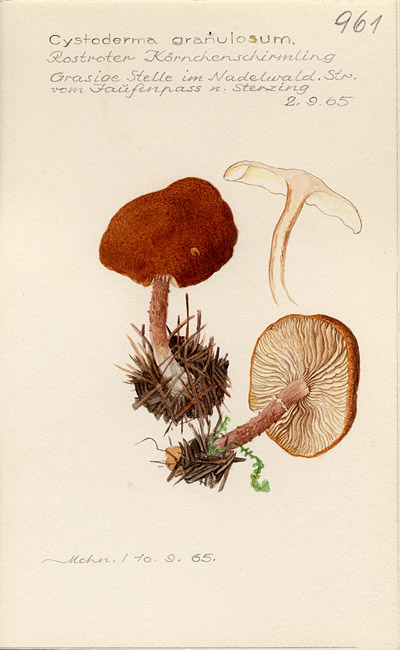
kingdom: Fungi
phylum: Basidiomycota
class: Agaricomycetes
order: Agaricales
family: Agaricaceae
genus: Cystodermella
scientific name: Cystodermella granulosa
